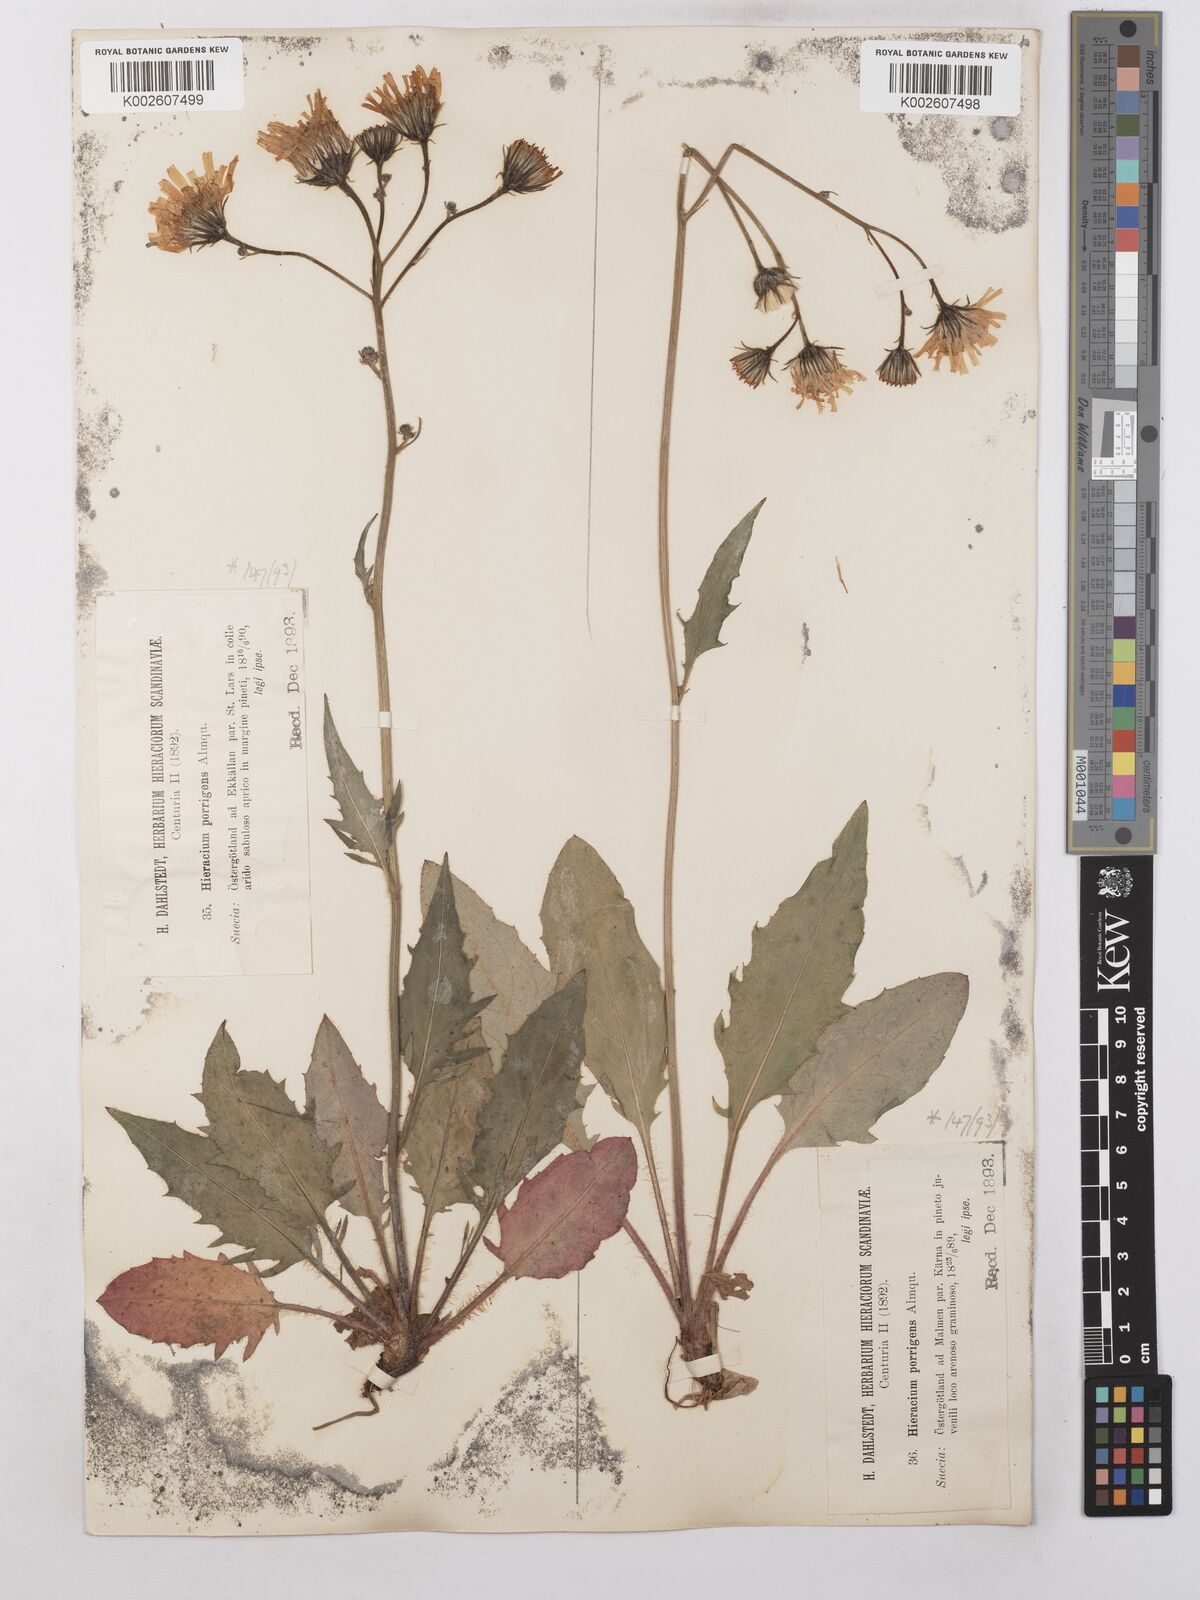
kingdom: Plantae
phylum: Tracheophyta
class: Magnoliopsida
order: Asterales
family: Asteraceae
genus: Hieracium
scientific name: Hieracium caesium
